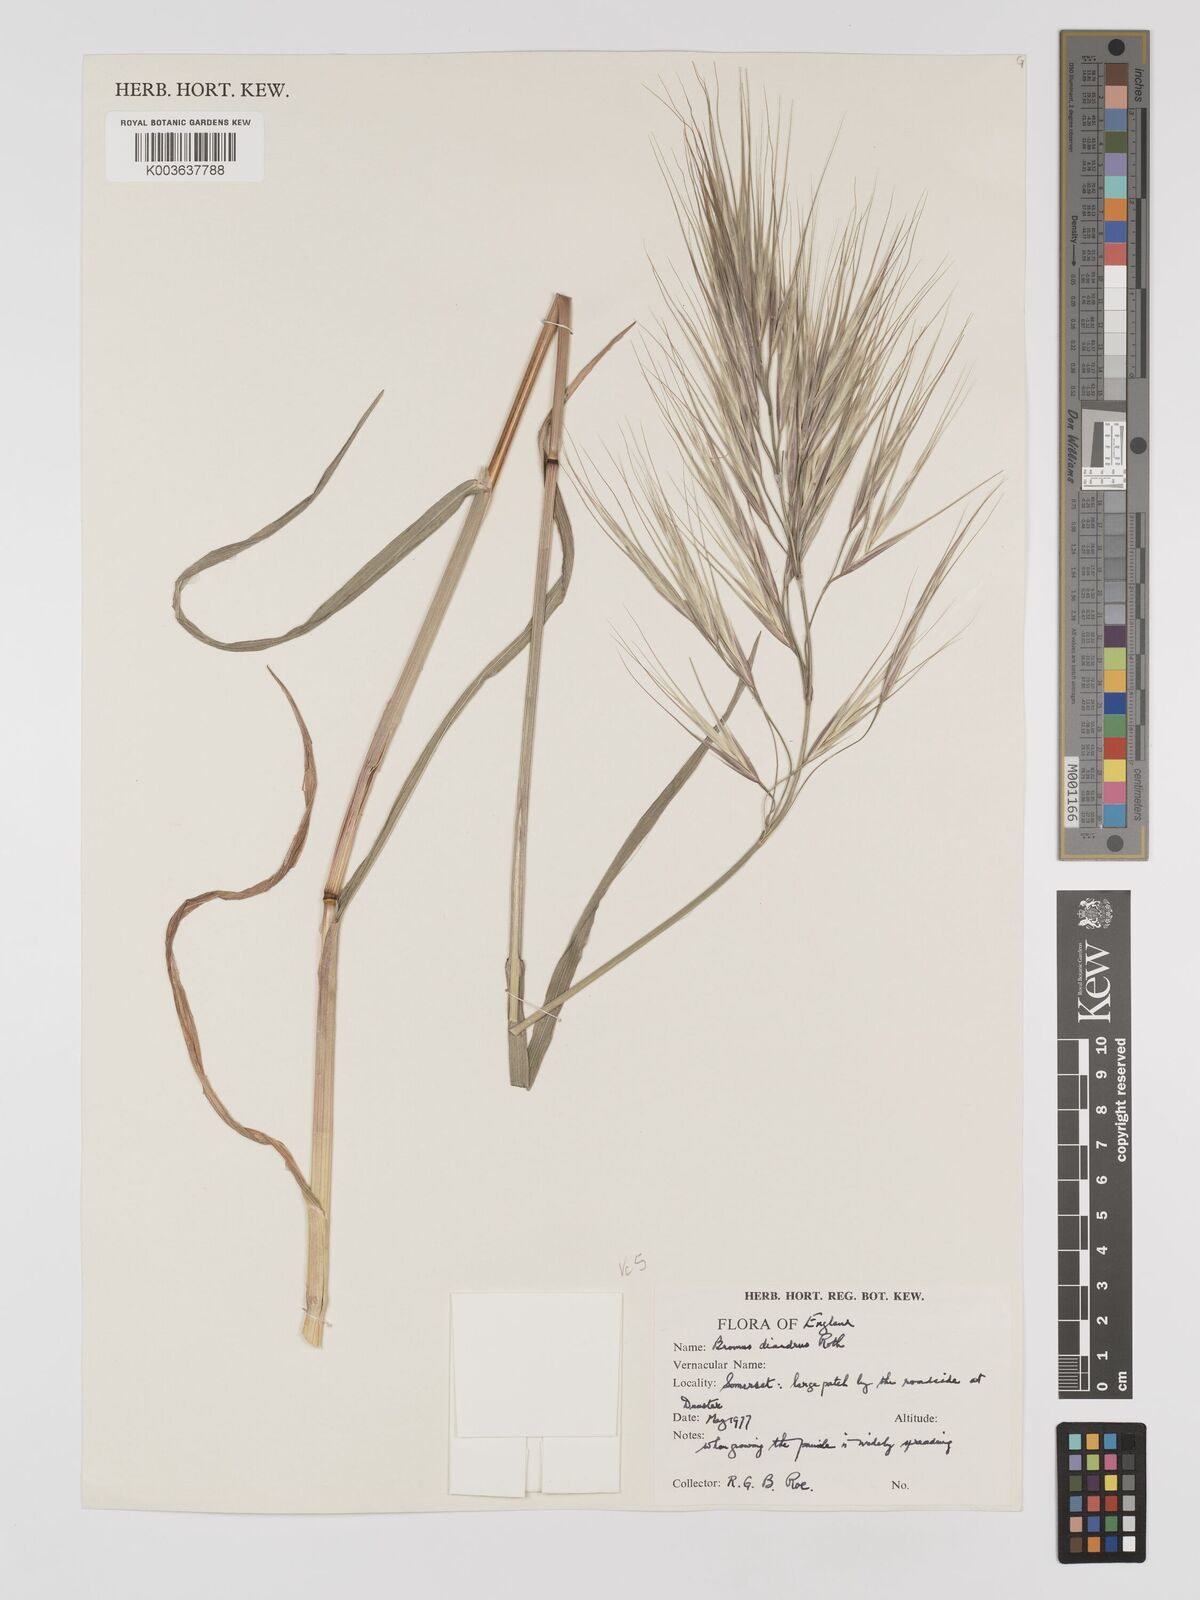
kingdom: Plantae
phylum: Tracheophyta
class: Liliopsida
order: Poales
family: Poaceae
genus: Bromus
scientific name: Bromus
